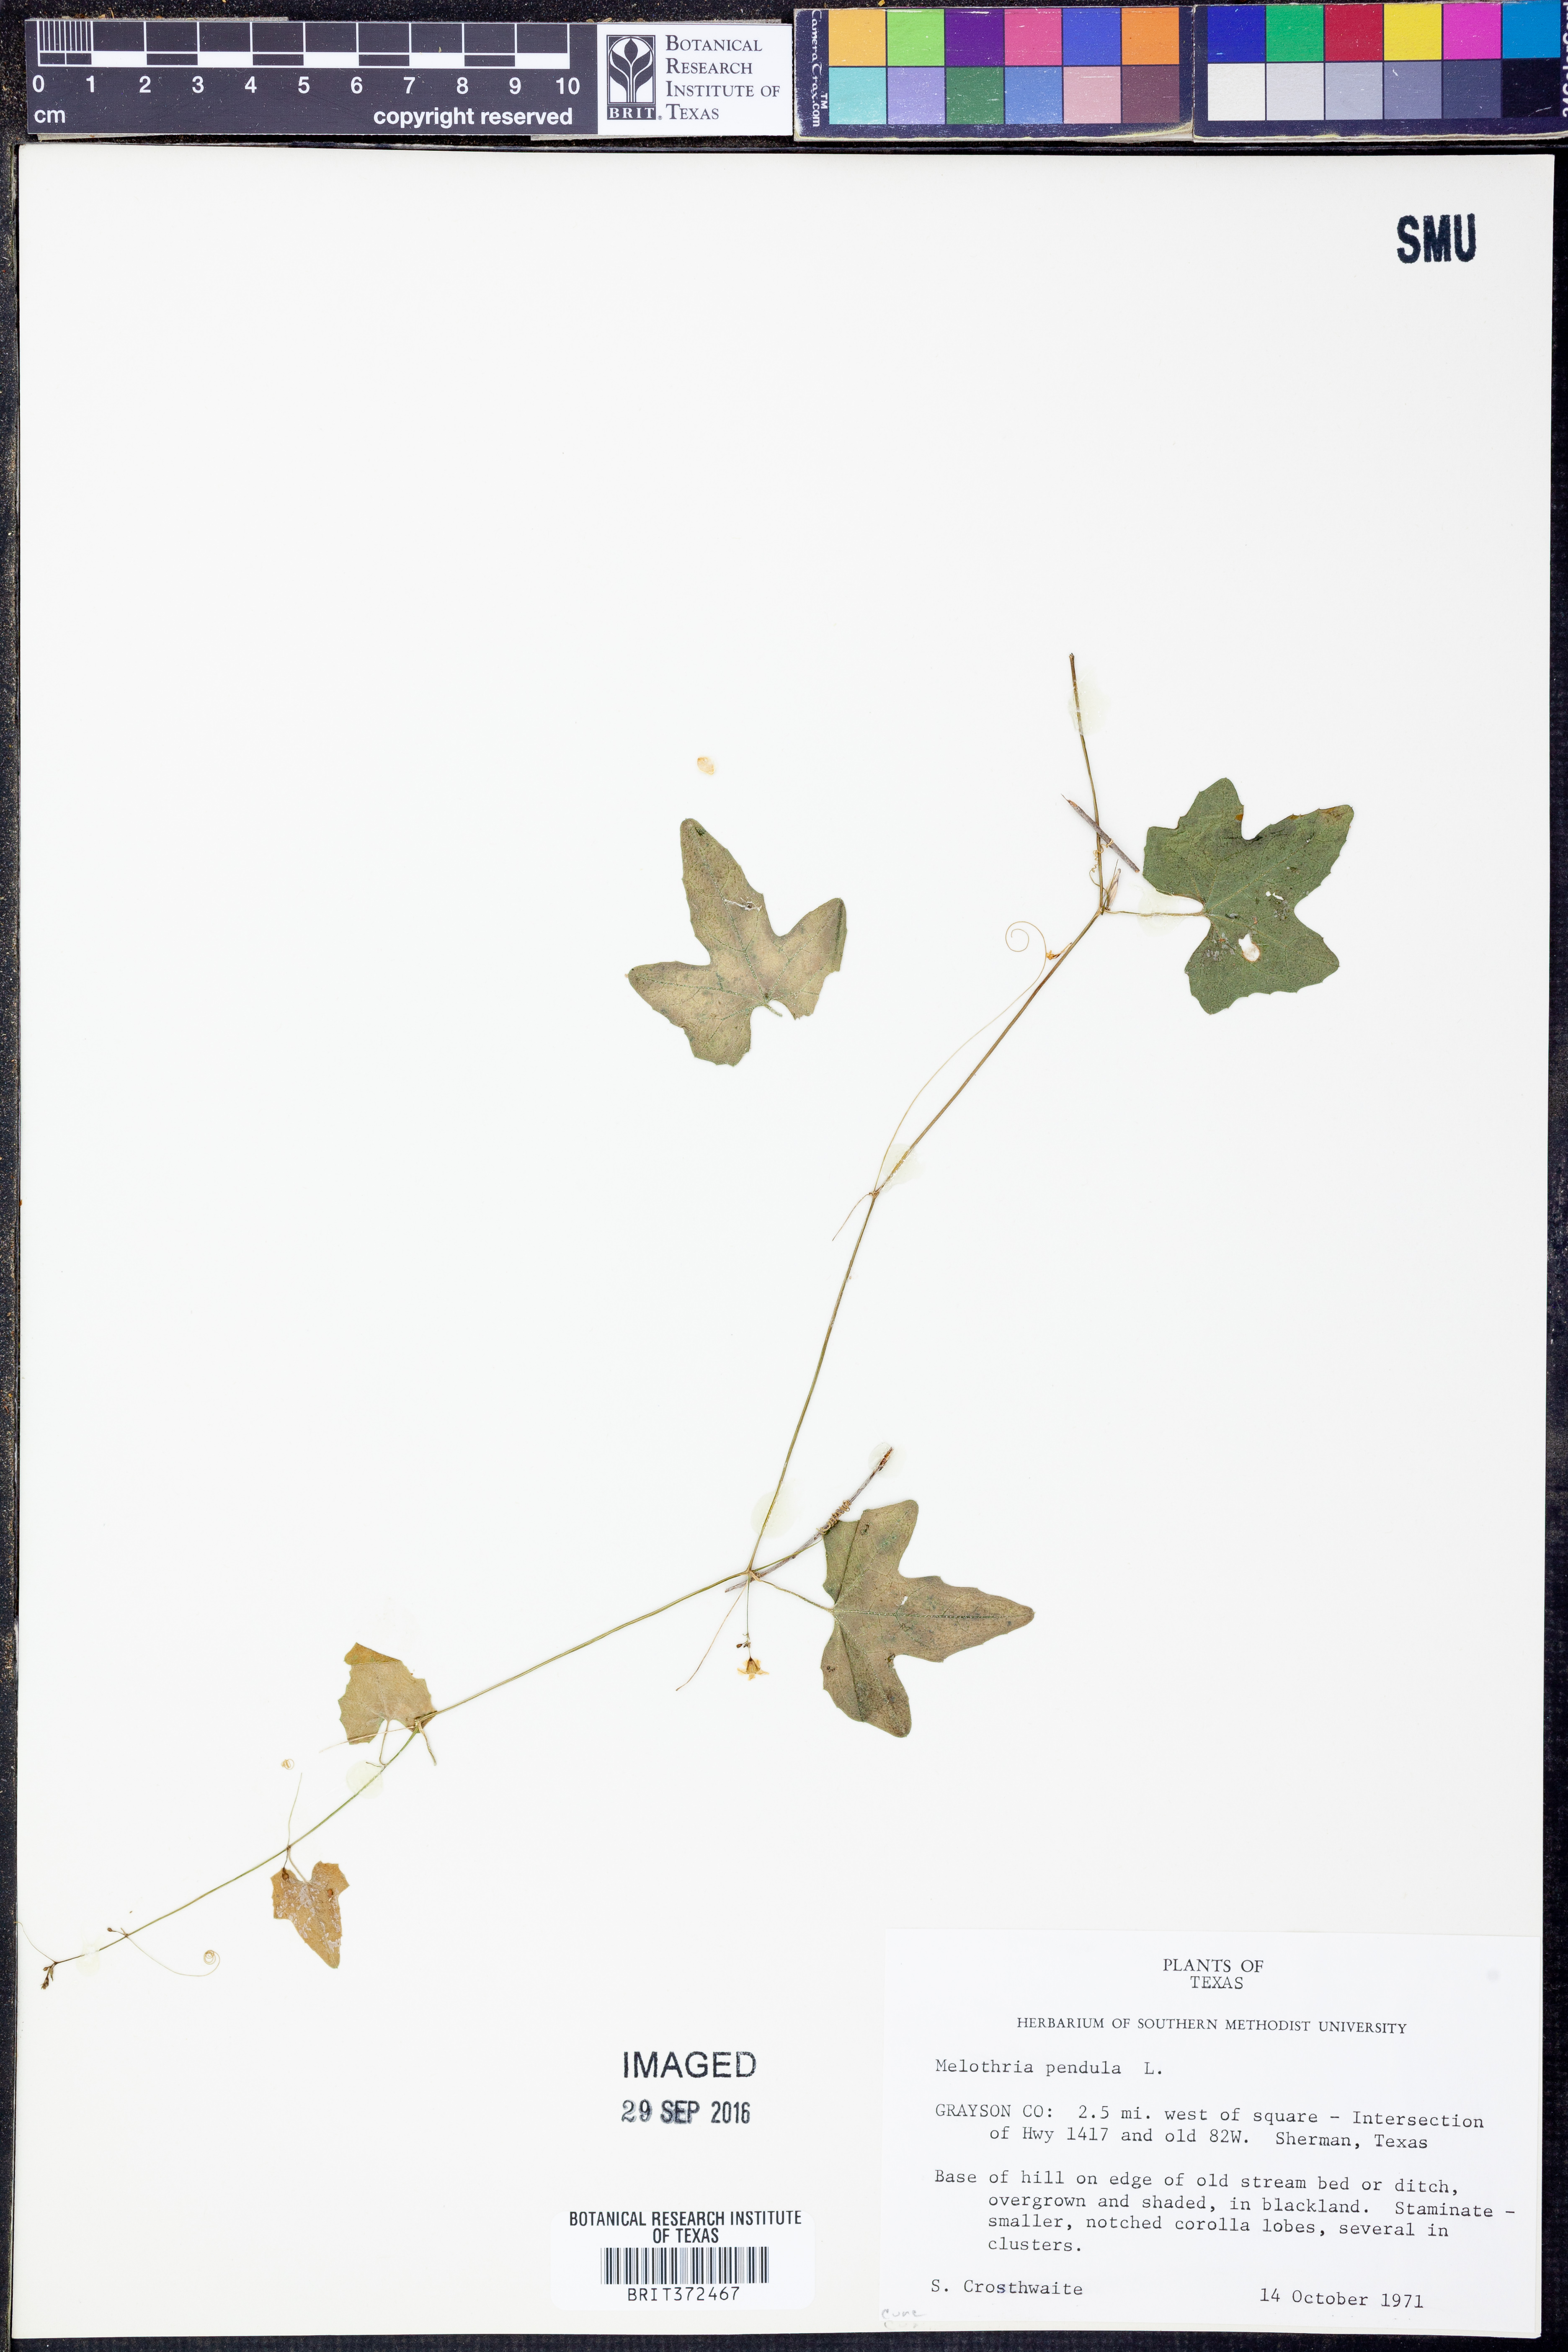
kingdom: Plantae
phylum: Tracheophyta
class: Magnoliopsida
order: Cucurbitales
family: Cucurbitaceae
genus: Melothria
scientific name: Melothria pendula
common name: Creeping-cucumber
